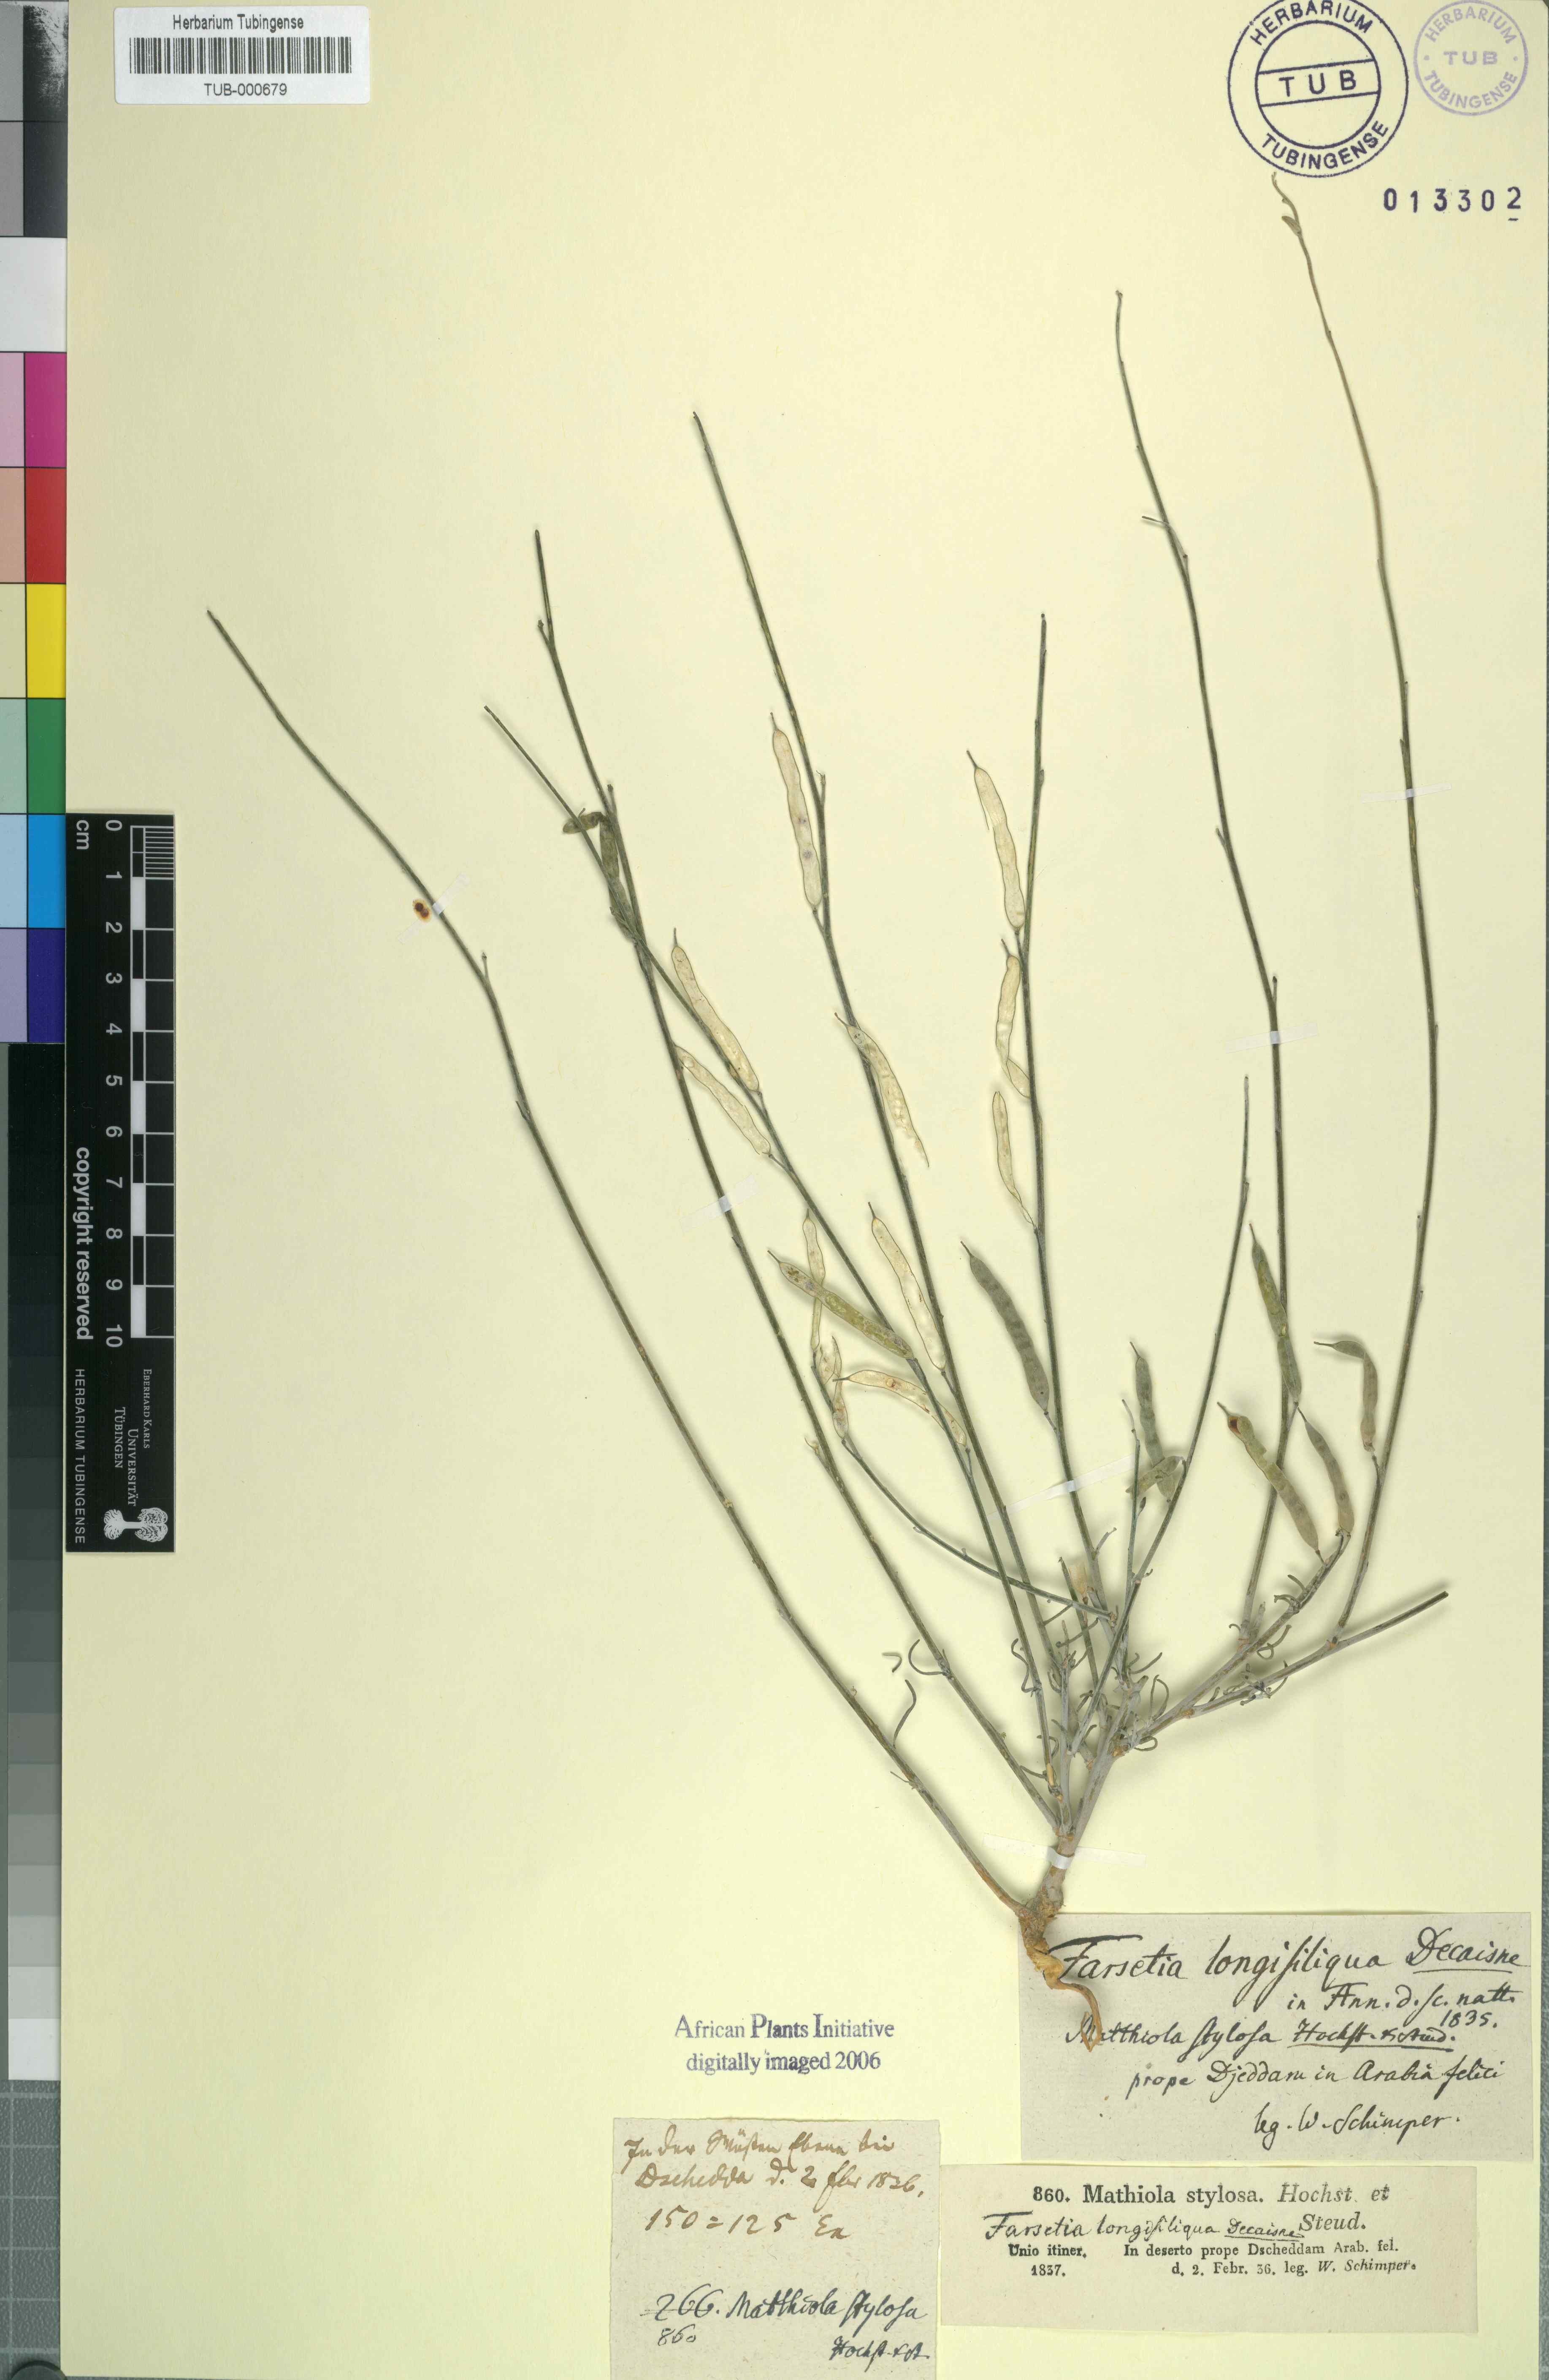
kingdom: Plantae
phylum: Tracheophyta
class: Magnoliopsida
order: Brassicales
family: Brassicaceae
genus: Farsetia
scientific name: Farsetia stylosa
